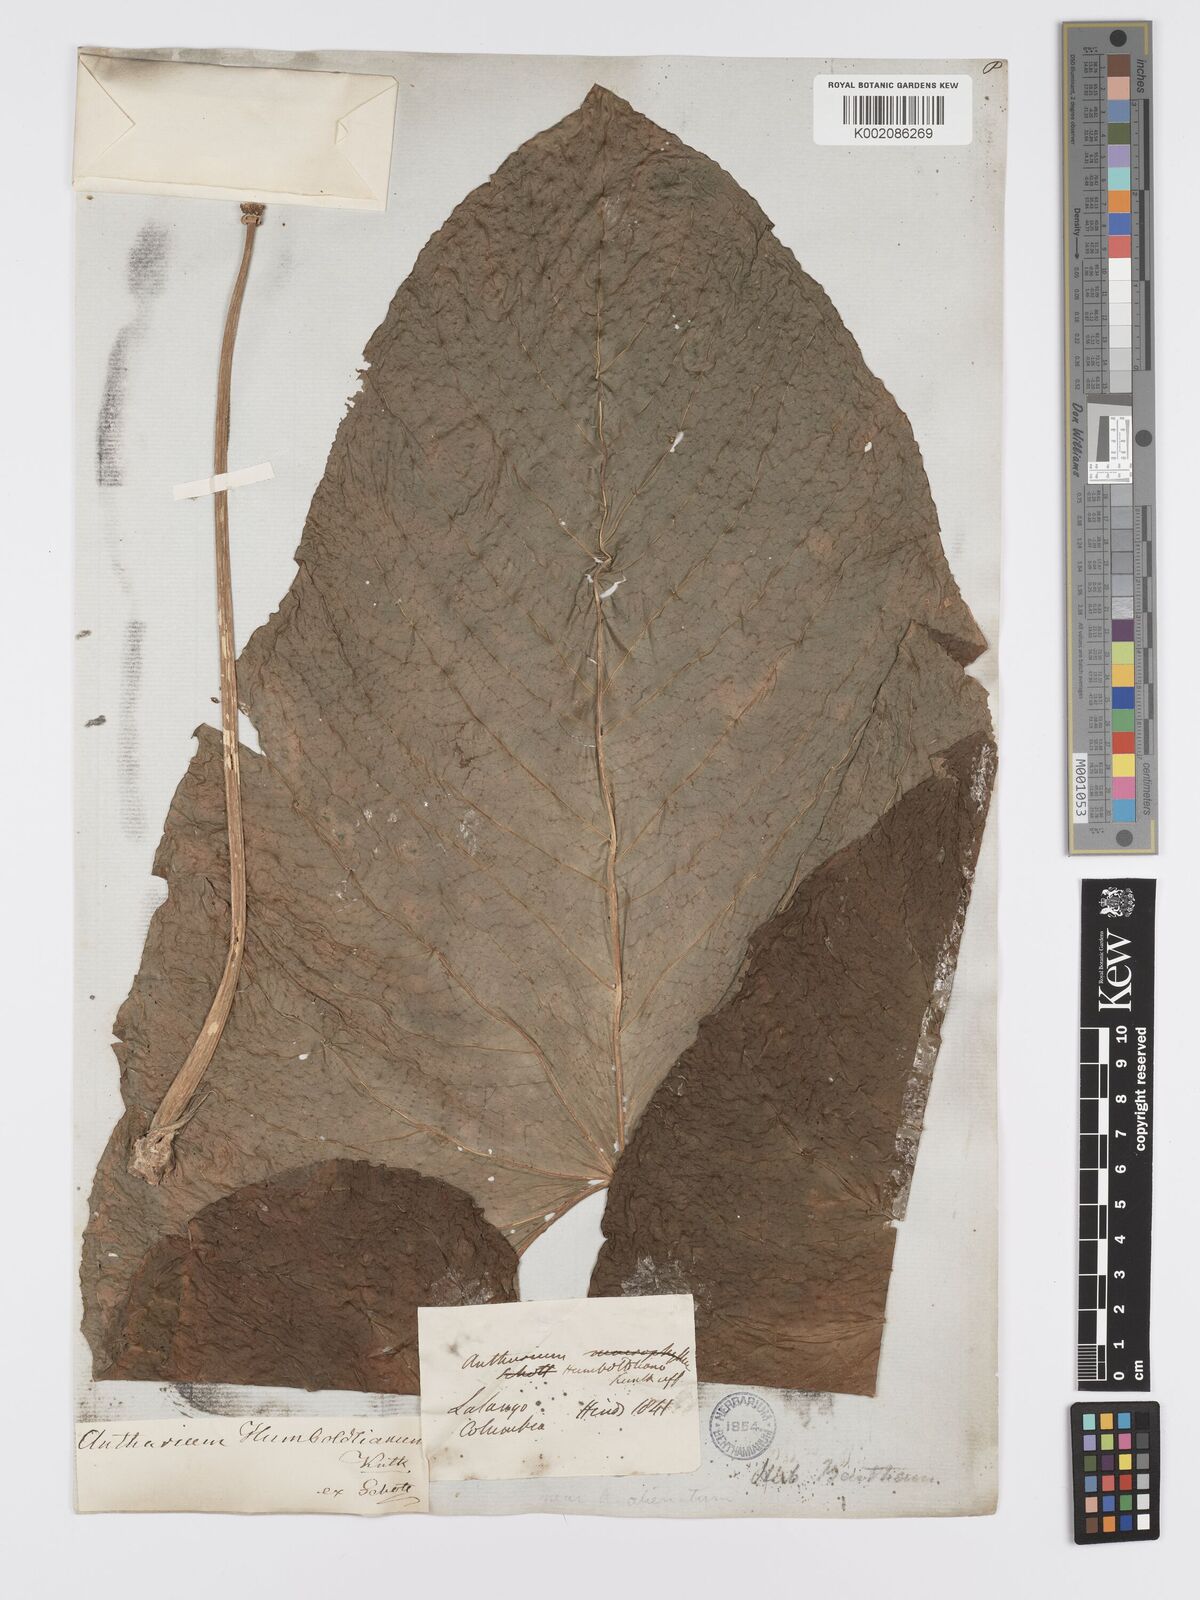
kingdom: Plantae
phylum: Tracheophyta
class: Liliopsida
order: Alismatales
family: Araceae
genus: Anthurium
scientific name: Anthurium humboldtianum
